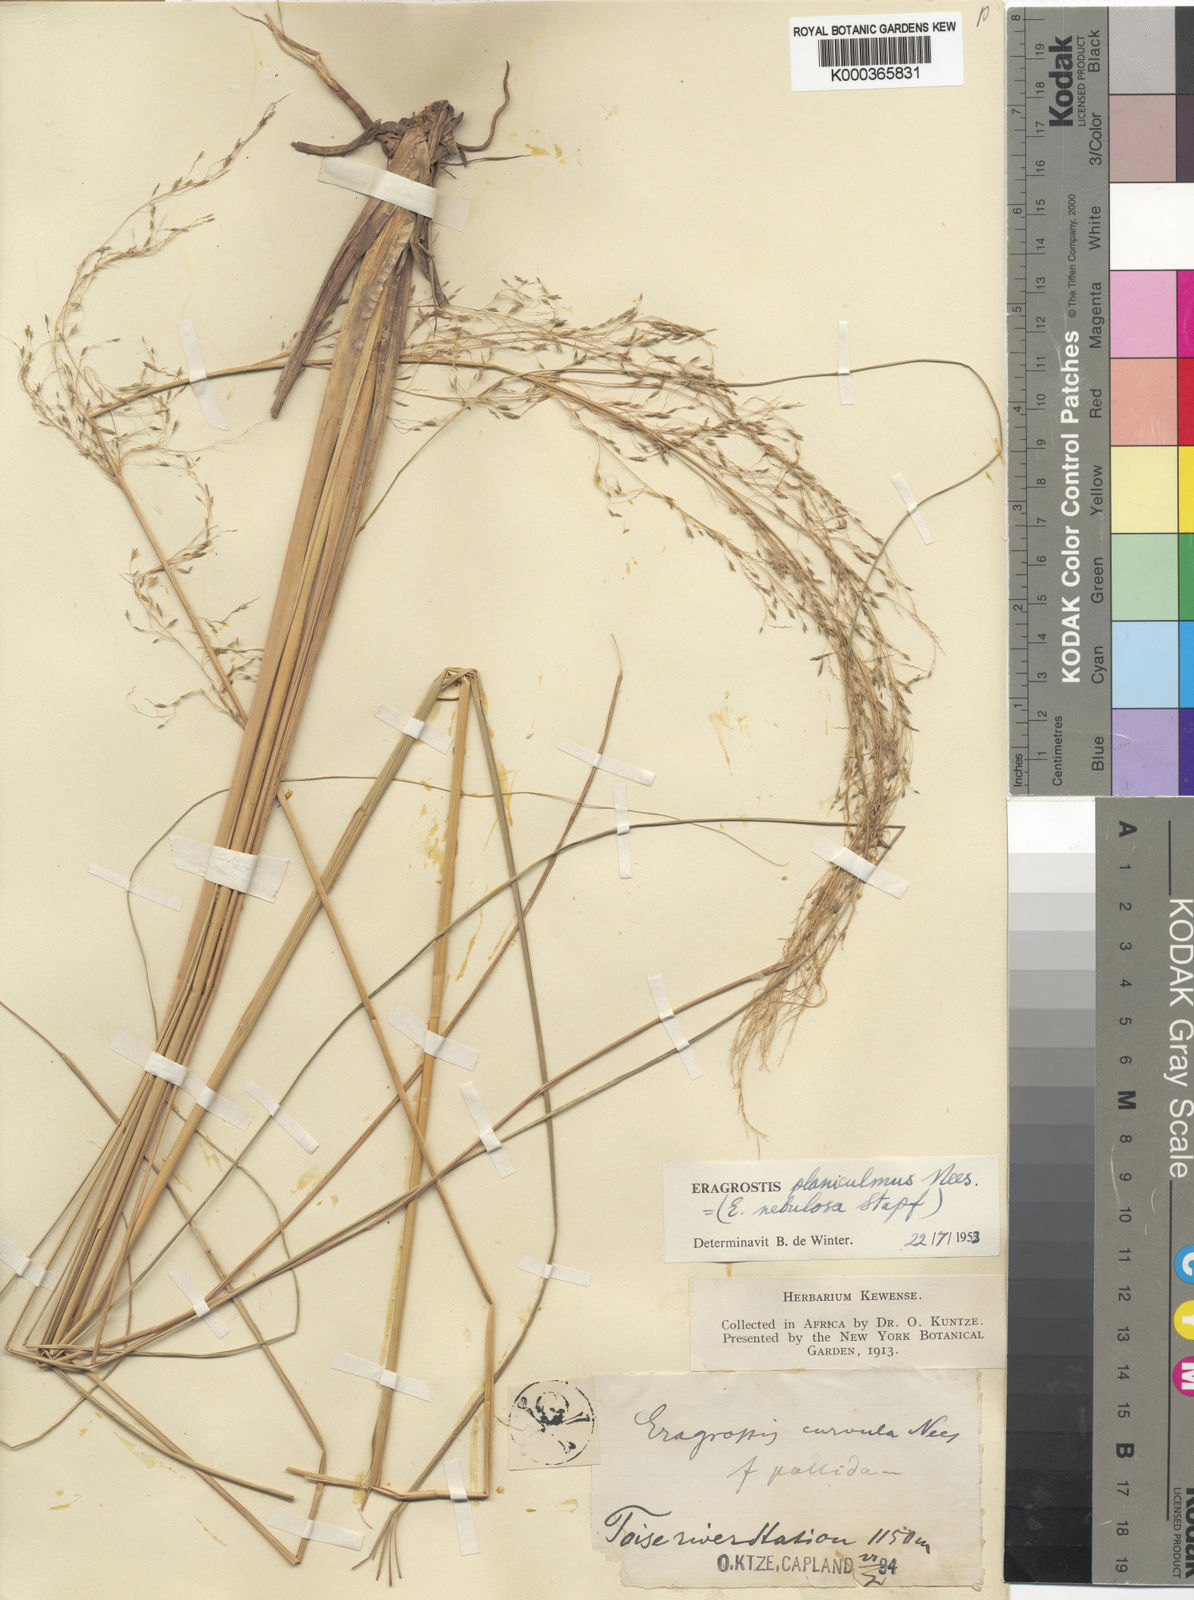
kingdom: Plantae
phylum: Tracheophyta
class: Liliopsida
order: Poales
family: Poaceae
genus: Eragrostis
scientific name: Eragrostis curvula
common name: African love-grass
